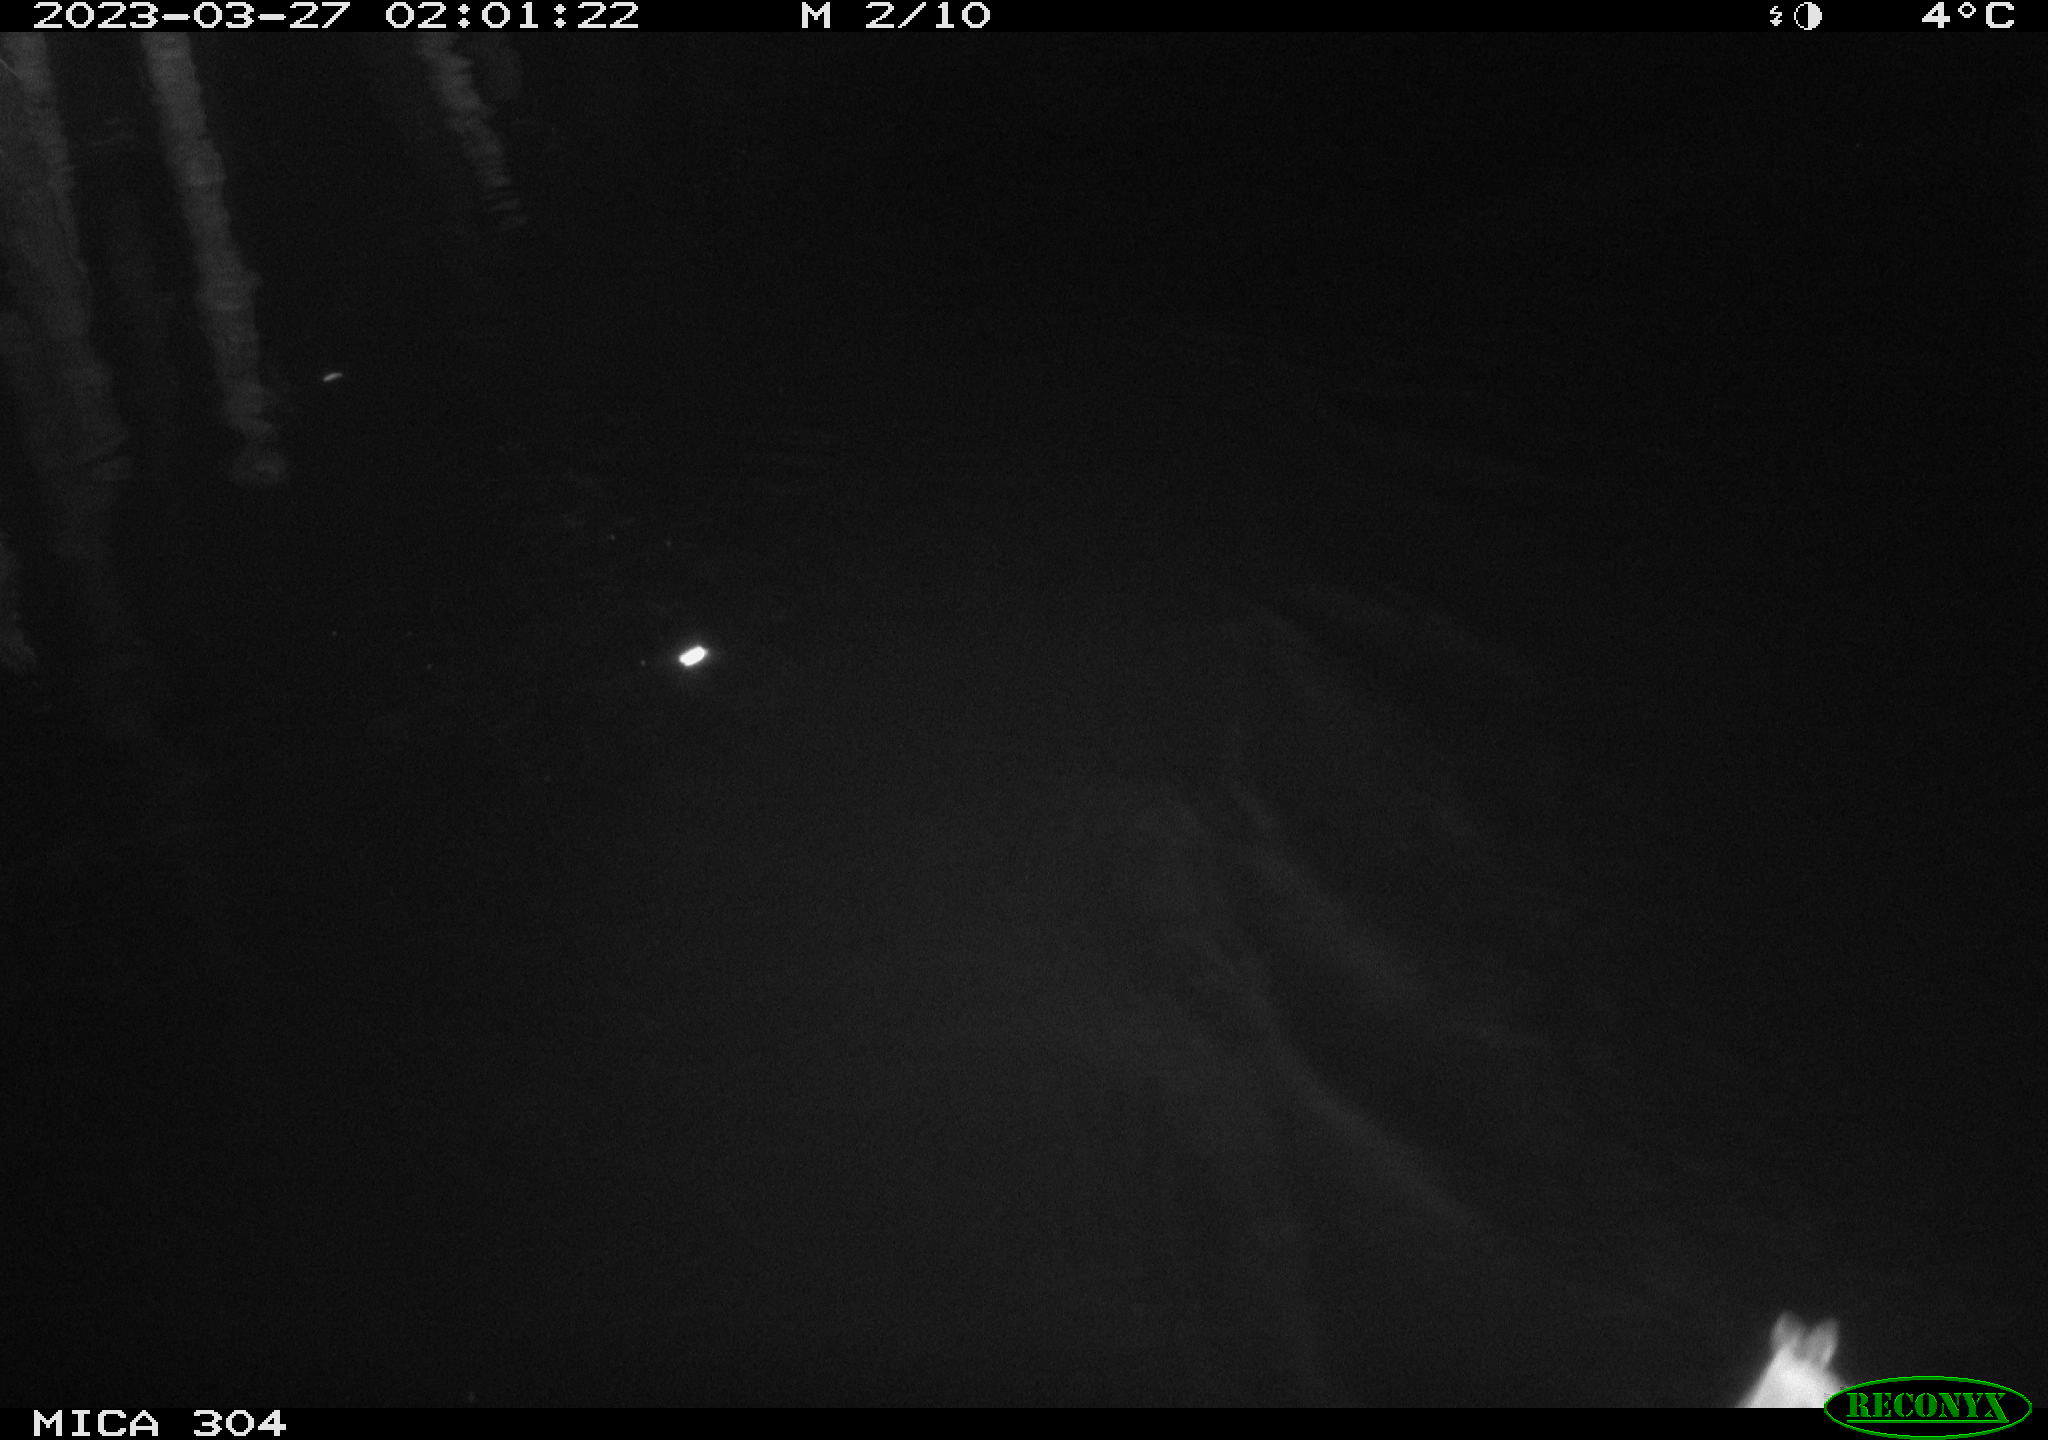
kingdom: Animalia
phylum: Chordata
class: Aves
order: Anseriformes
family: Anatidae
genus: Anas
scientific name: Anas
